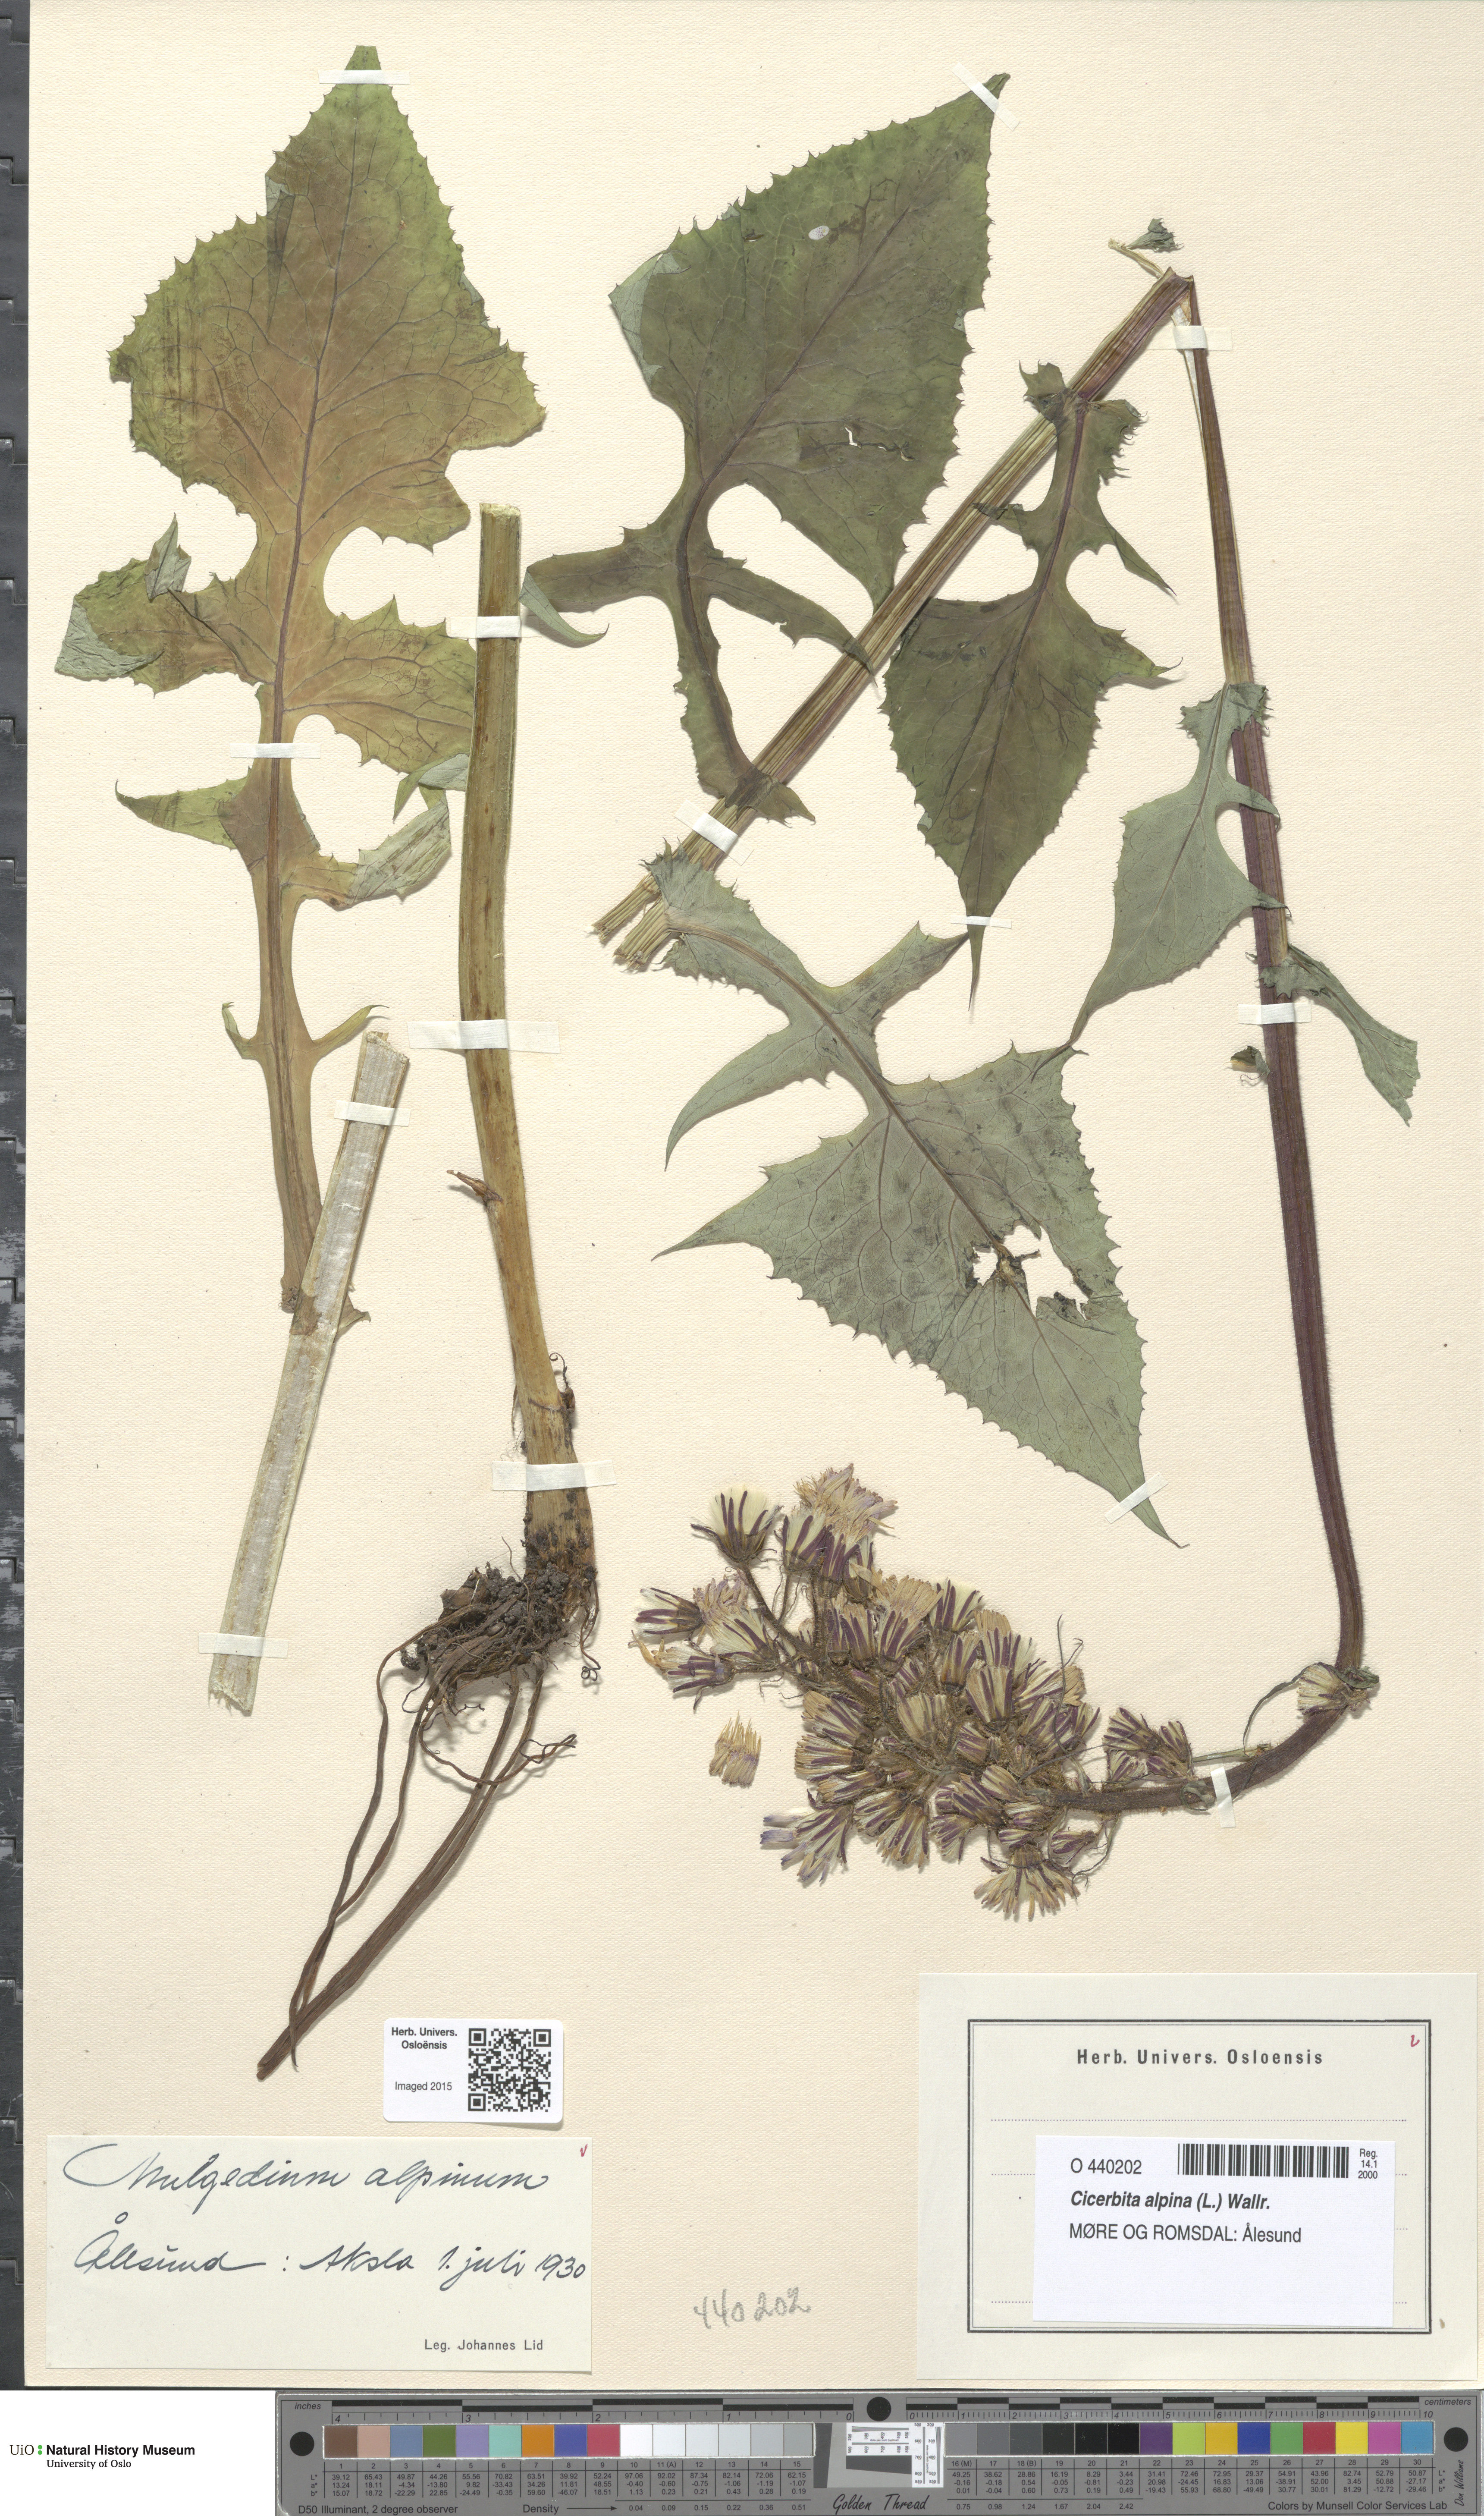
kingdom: Plantae
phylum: Tracheophyta
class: Magnoliopsida
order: Asterales
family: Asteraceae
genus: Cicerbita
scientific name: Cicerbita alpina
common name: Alpine blue-sow-thistle
